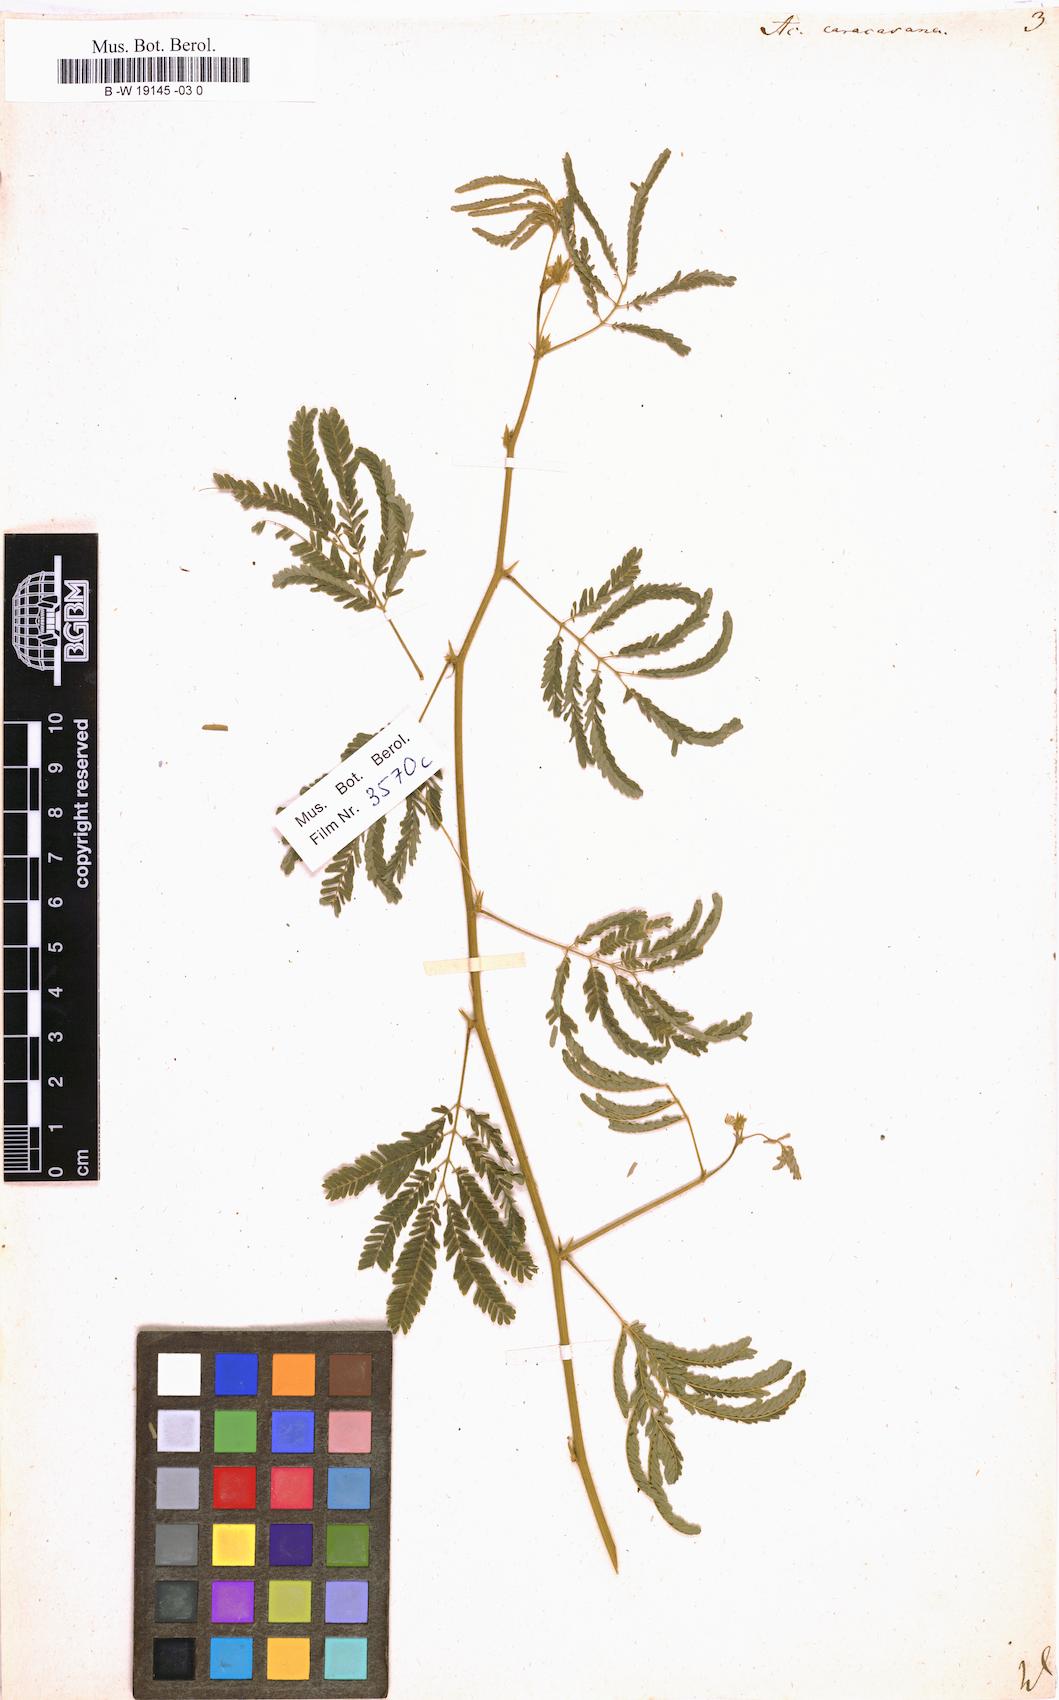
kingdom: Plantae
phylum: Tracheophyta
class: Magnoliopsida
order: Fabales
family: Fabaceae
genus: Zapoteca
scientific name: Zapoteca caracasana
